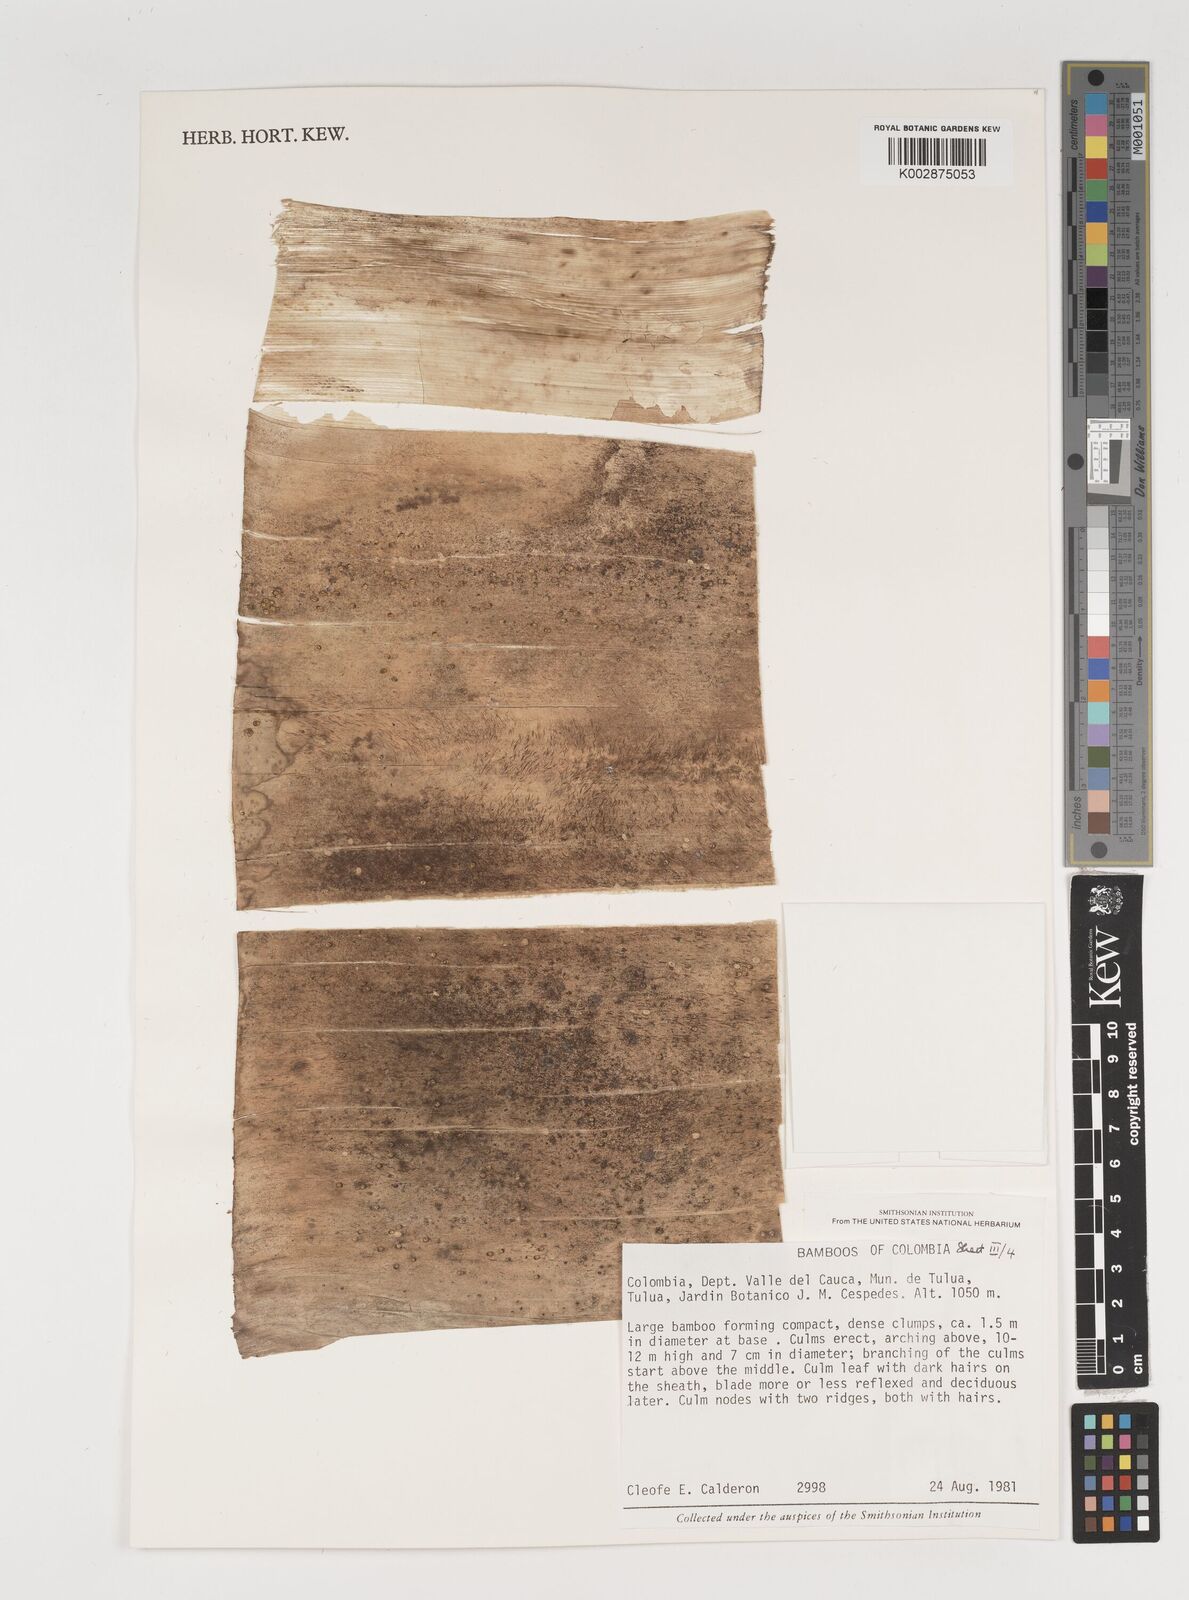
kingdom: Plantae
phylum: Tracheophyta
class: Liliopsida
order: Poales
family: Poaceae
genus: Gigantochloa
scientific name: Gigantochloa
